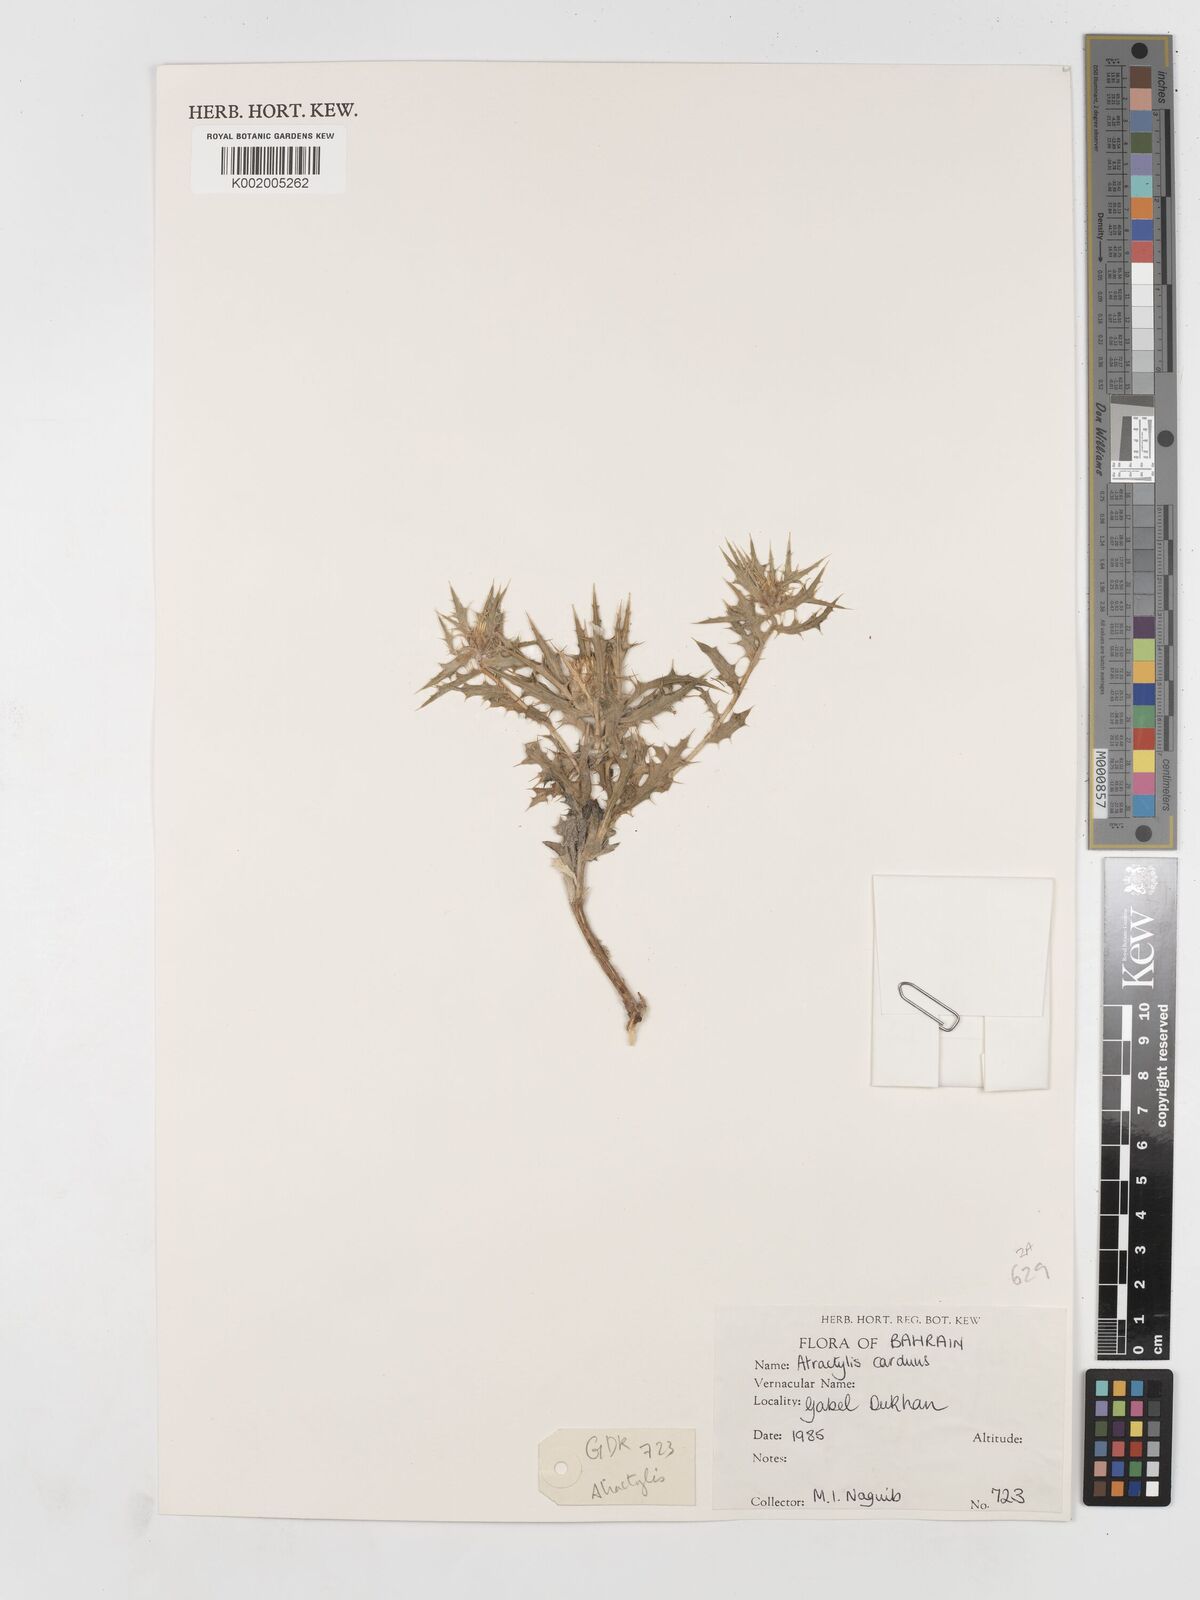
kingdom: Plantae
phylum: Tracheophyta
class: Magnoliopsida
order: Asterales
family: Asteraceae
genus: Atractylis
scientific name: Atractylis carduus
